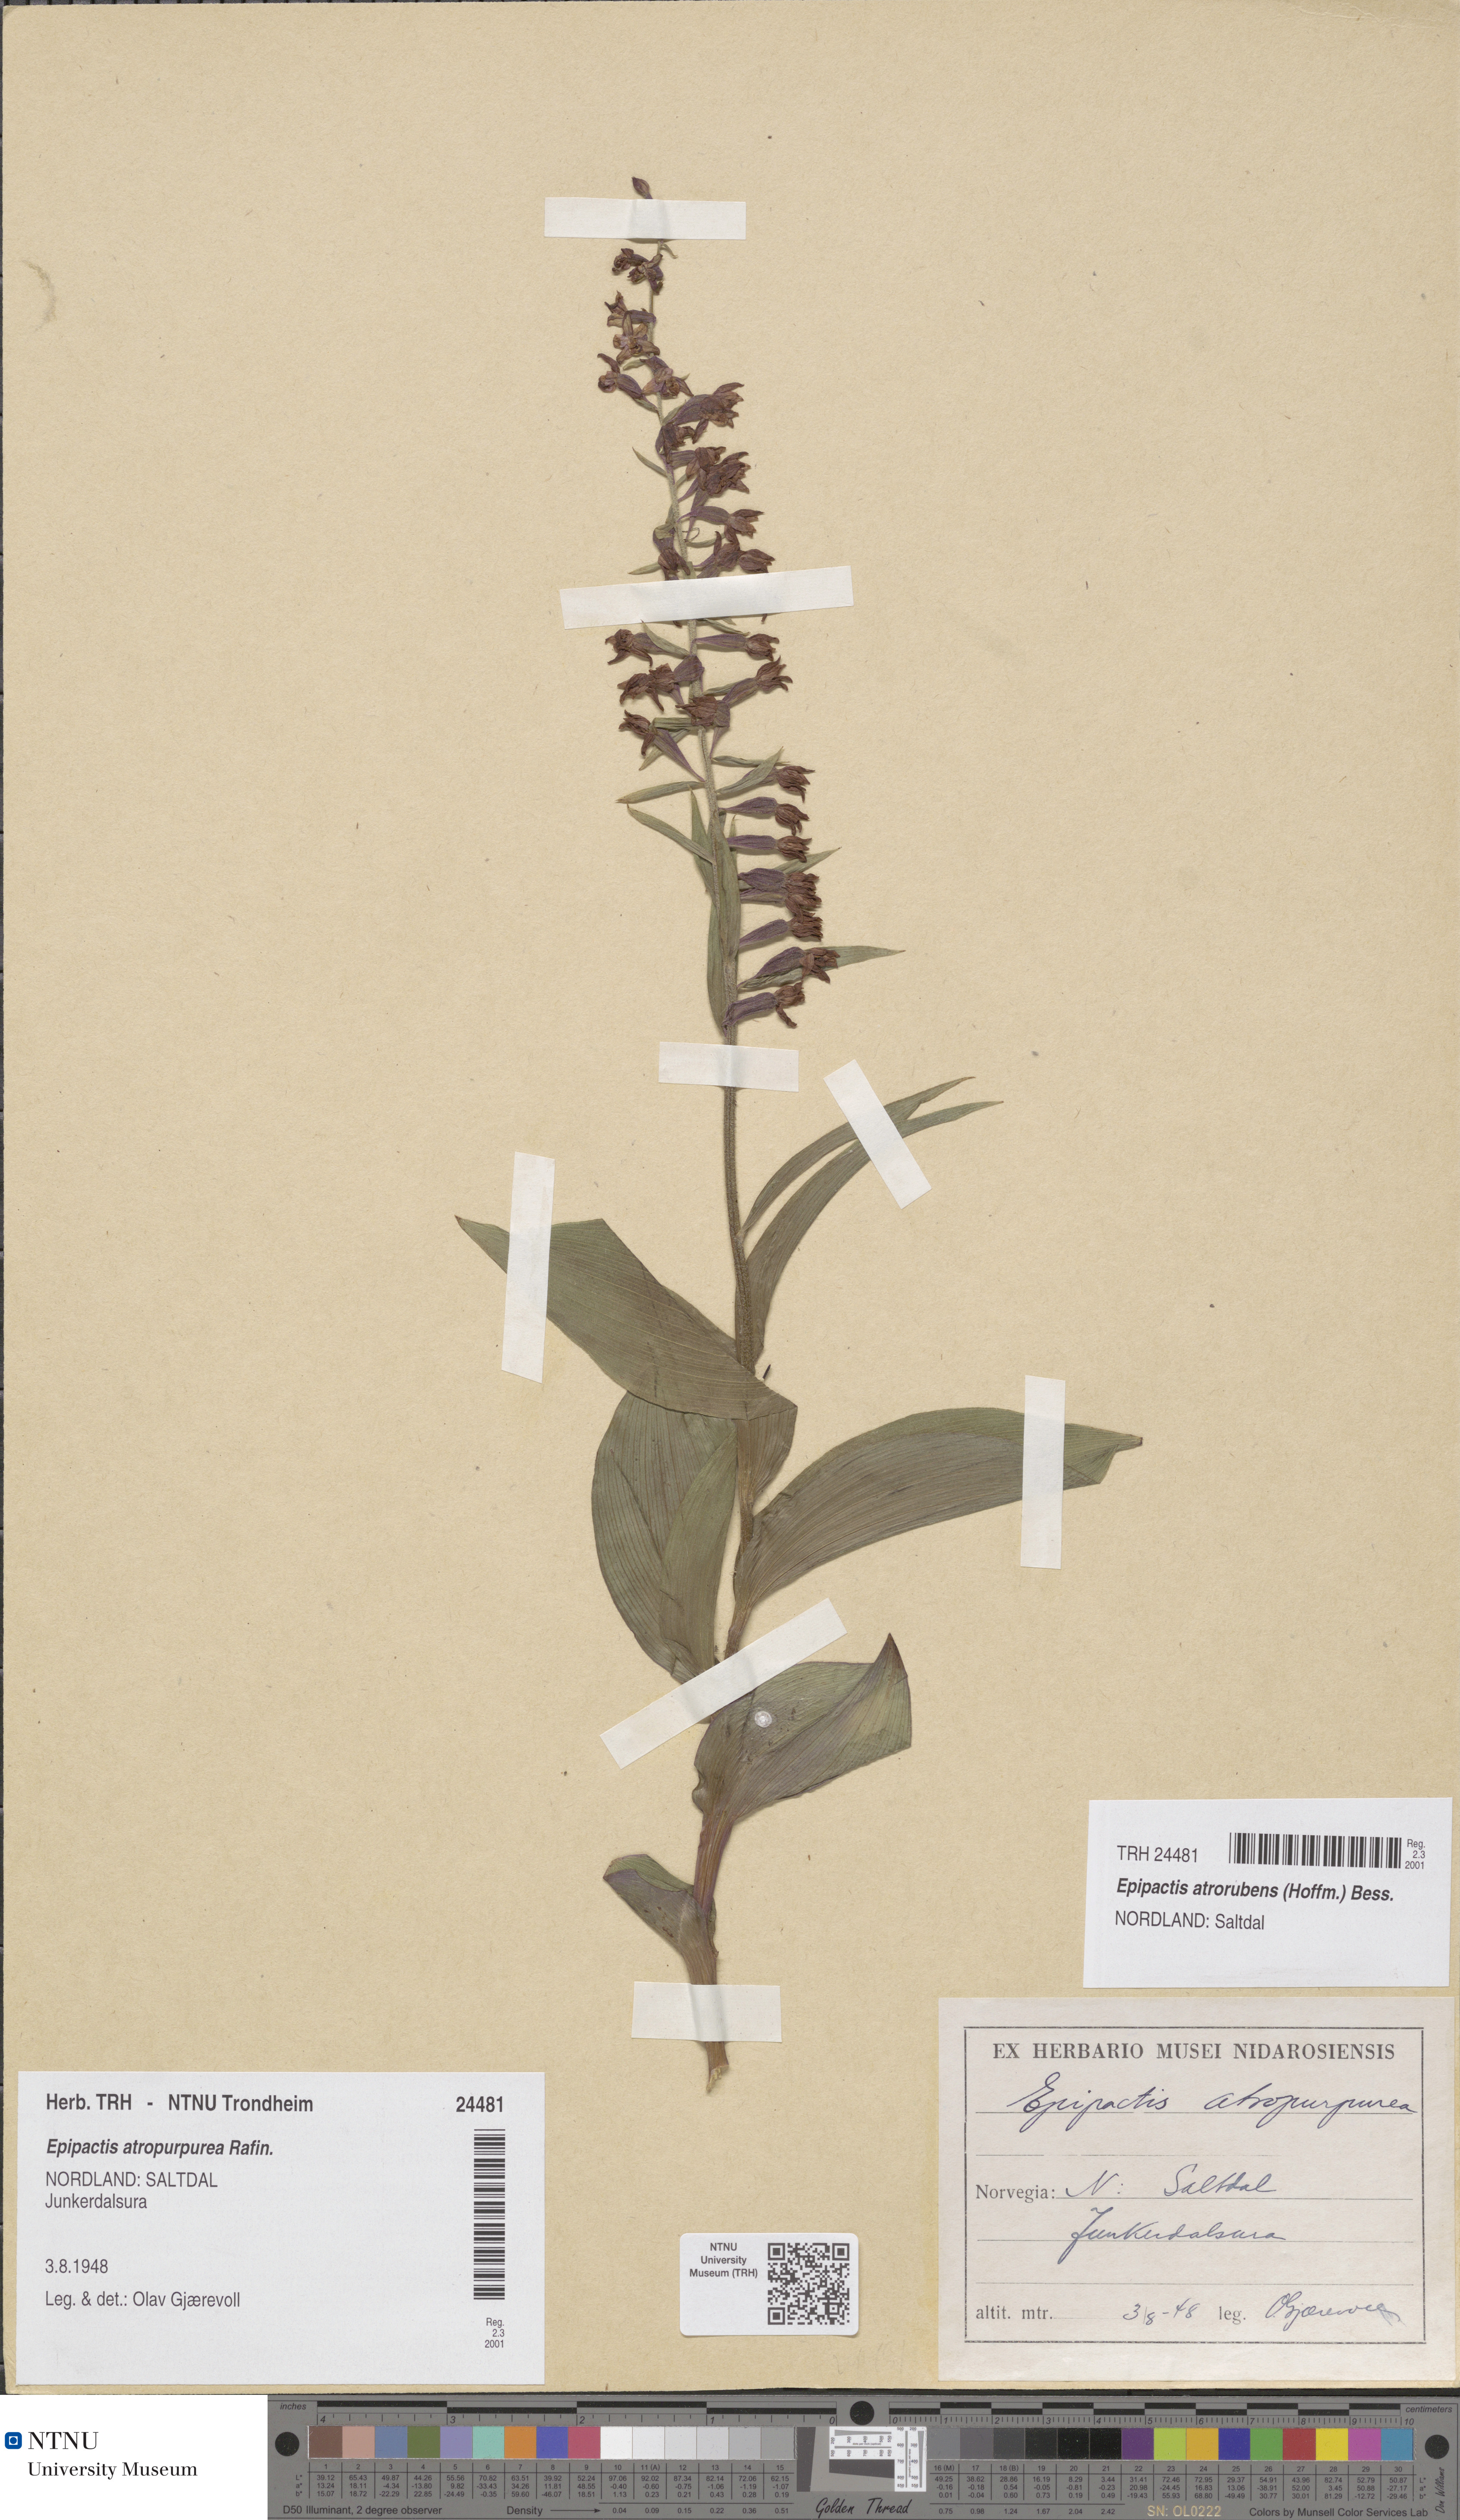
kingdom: Plantae
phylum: Tracheophyta
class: Liliopsida
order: Asparagales
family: Orchidaceae
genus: Epipactis
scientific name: Epipactis atrorubens
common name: Dark-red helleborine
